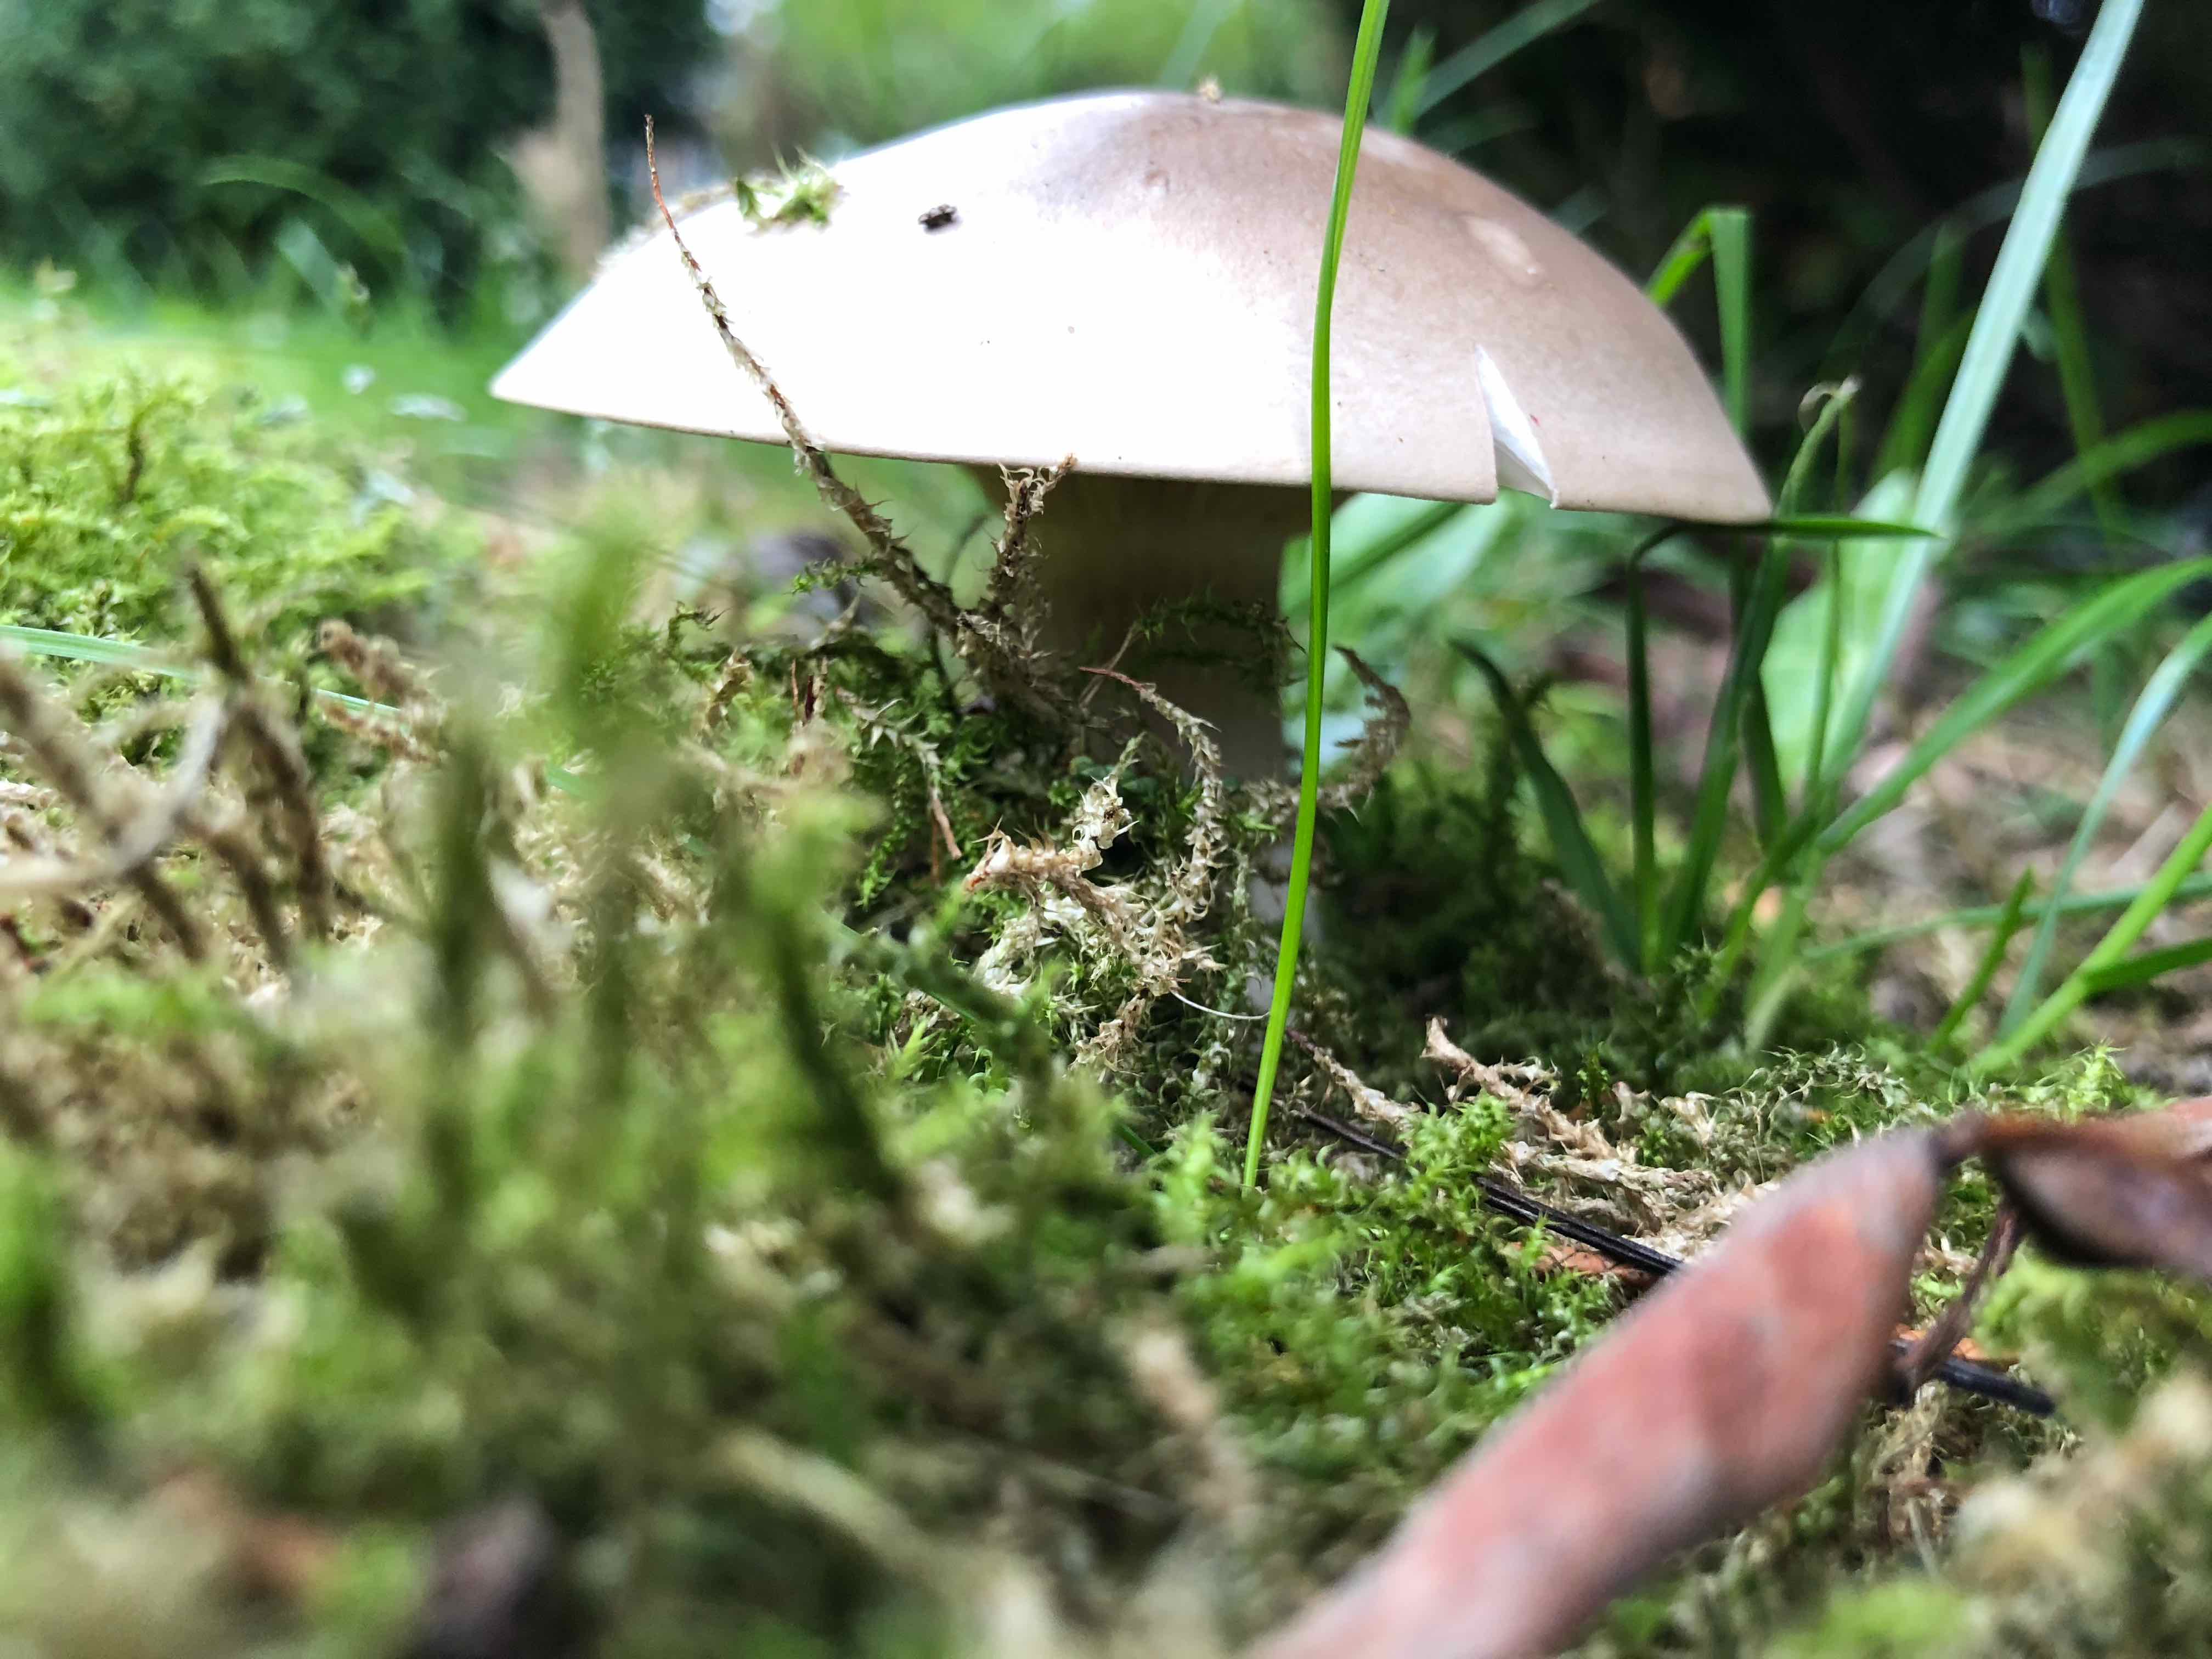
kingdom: Fungi
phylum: Basidiomycota
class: Agaricomycetes
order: Agaricales
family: Tricholomataceae
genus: Clitocybe
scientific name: Clitocybe nebularis
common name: tåge-tragthat
